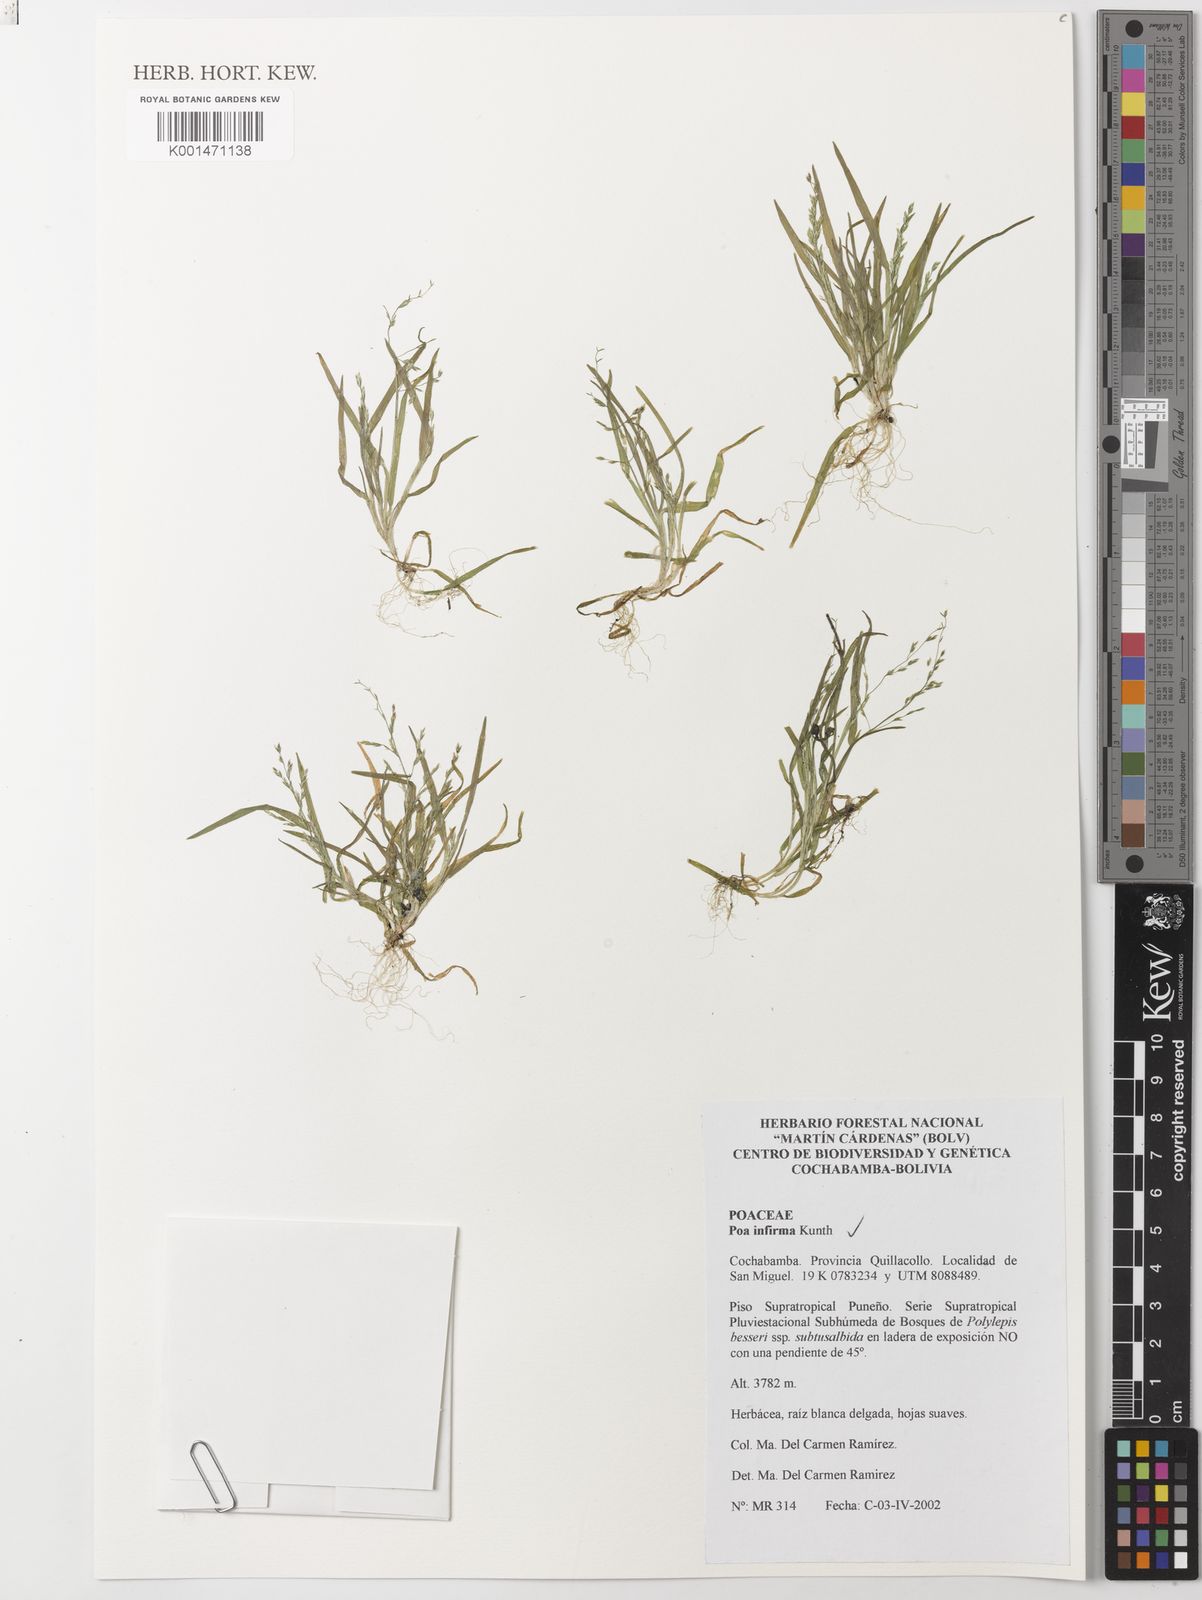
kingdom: Plantae
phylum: Tracheophyta
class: Liliopsida
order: Poales
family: Poaceae
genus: Poa
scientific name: Poa infirma
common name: Weak bluegrass
